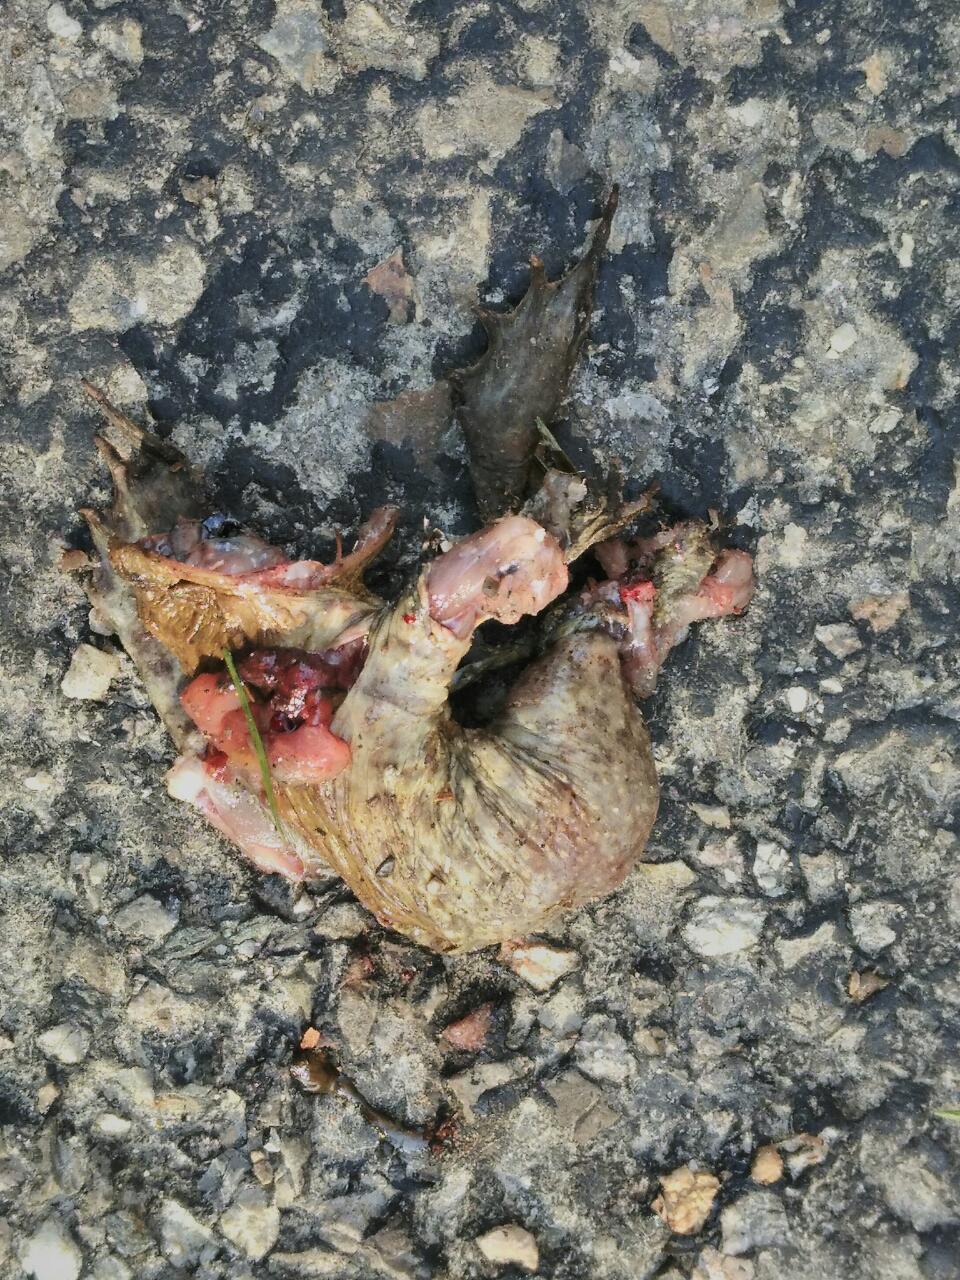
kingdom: Animalia
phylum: Chordata
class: Amphibia
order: Anura
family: Bufonidae
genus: Bufo
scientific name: Bufo bufo
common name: Common toad
